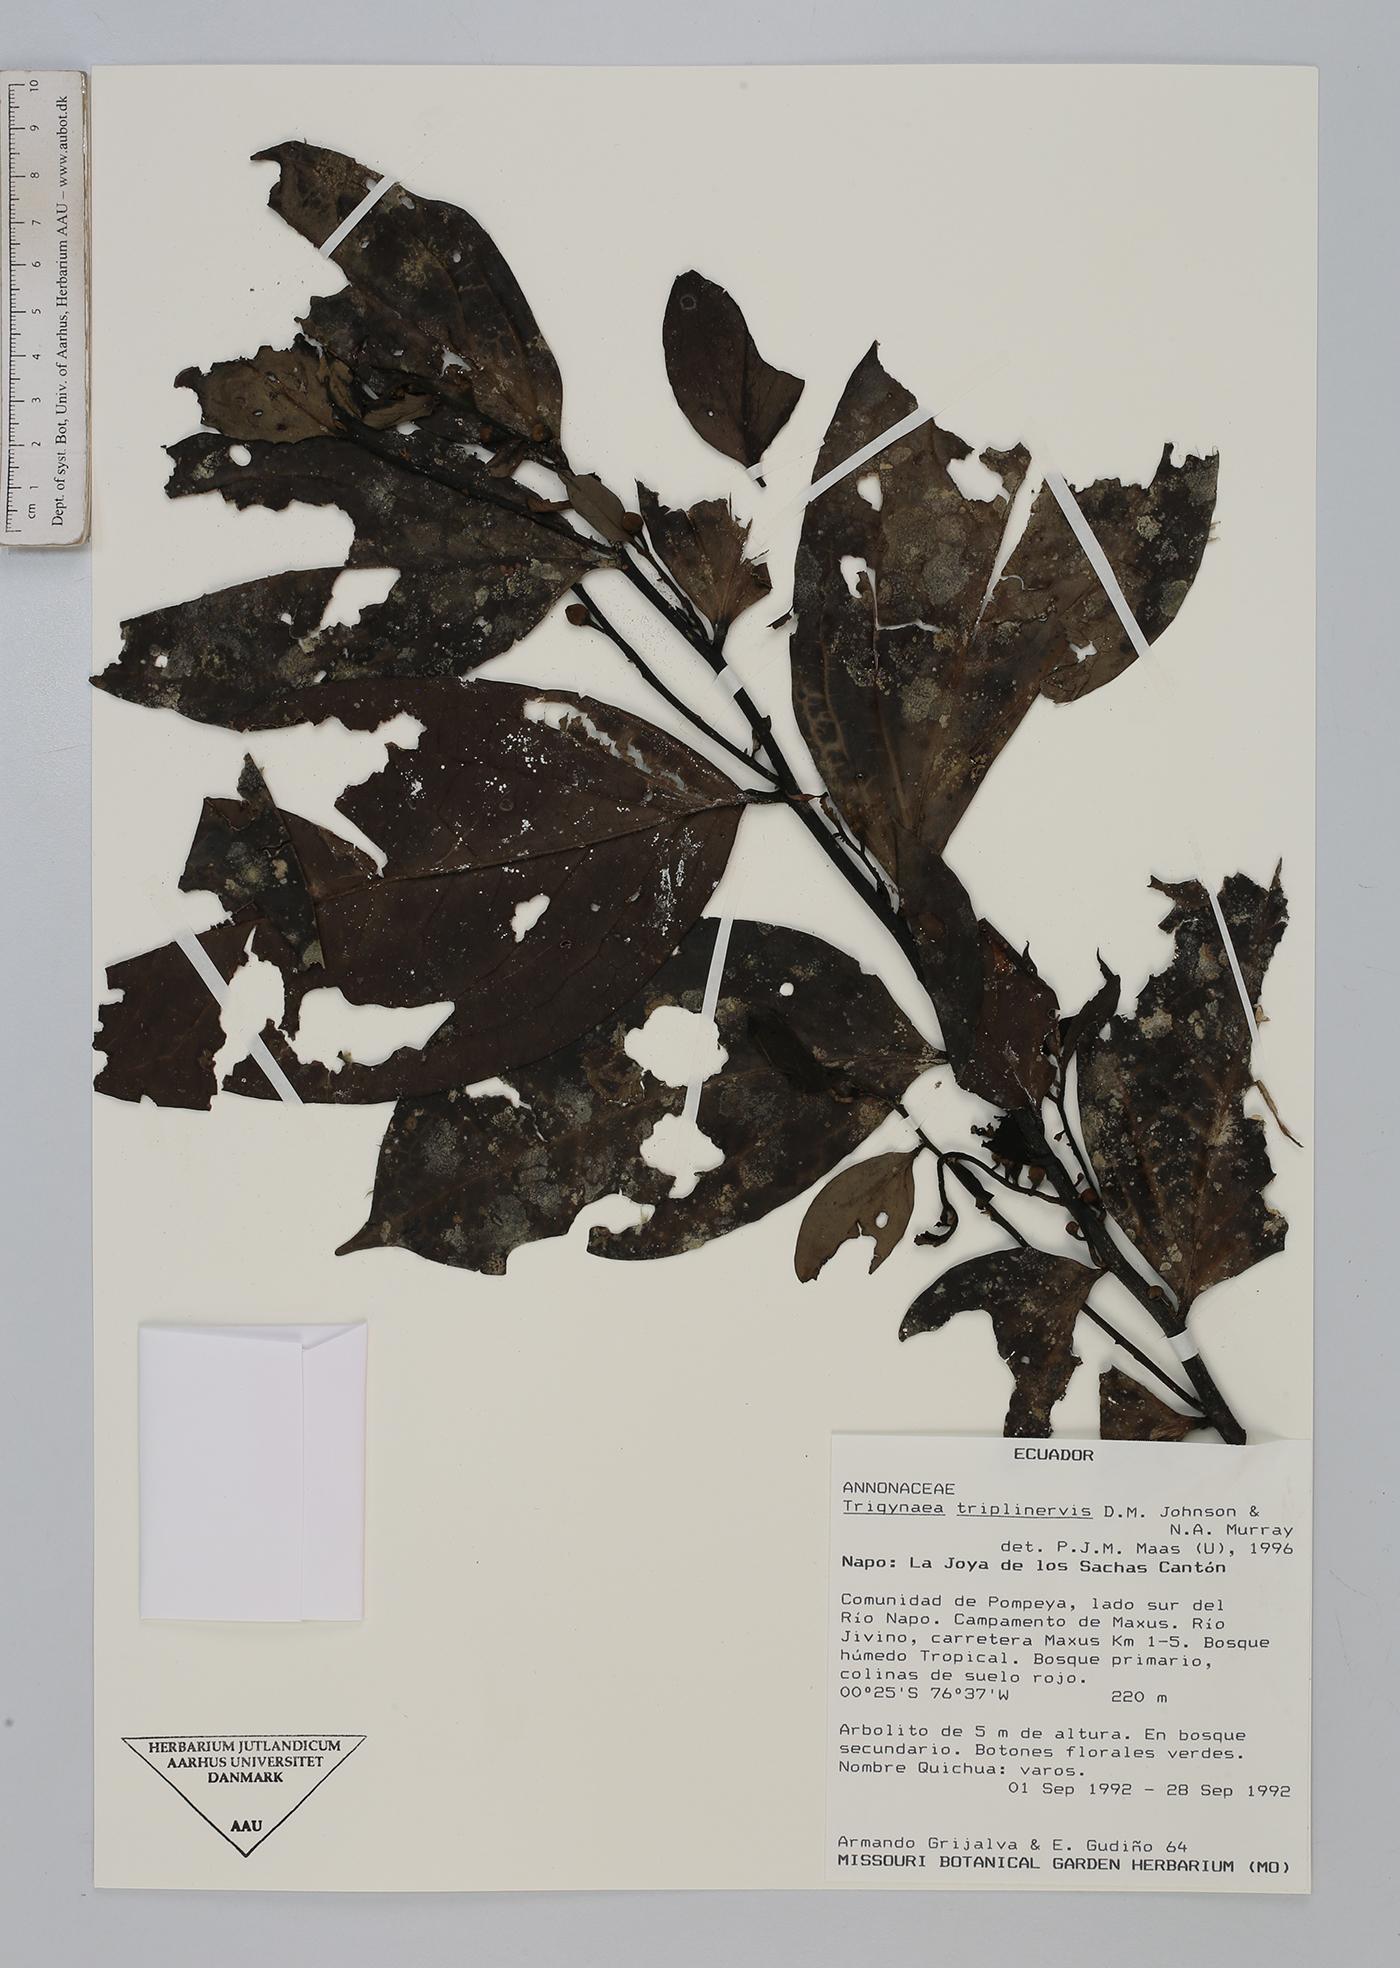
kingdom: Plantae
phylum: Tracheophyta
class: Magnoliopsida
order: Magnoliales
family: Annonaceae
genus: Trigynaea
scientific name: Trigynaea triplinervis
